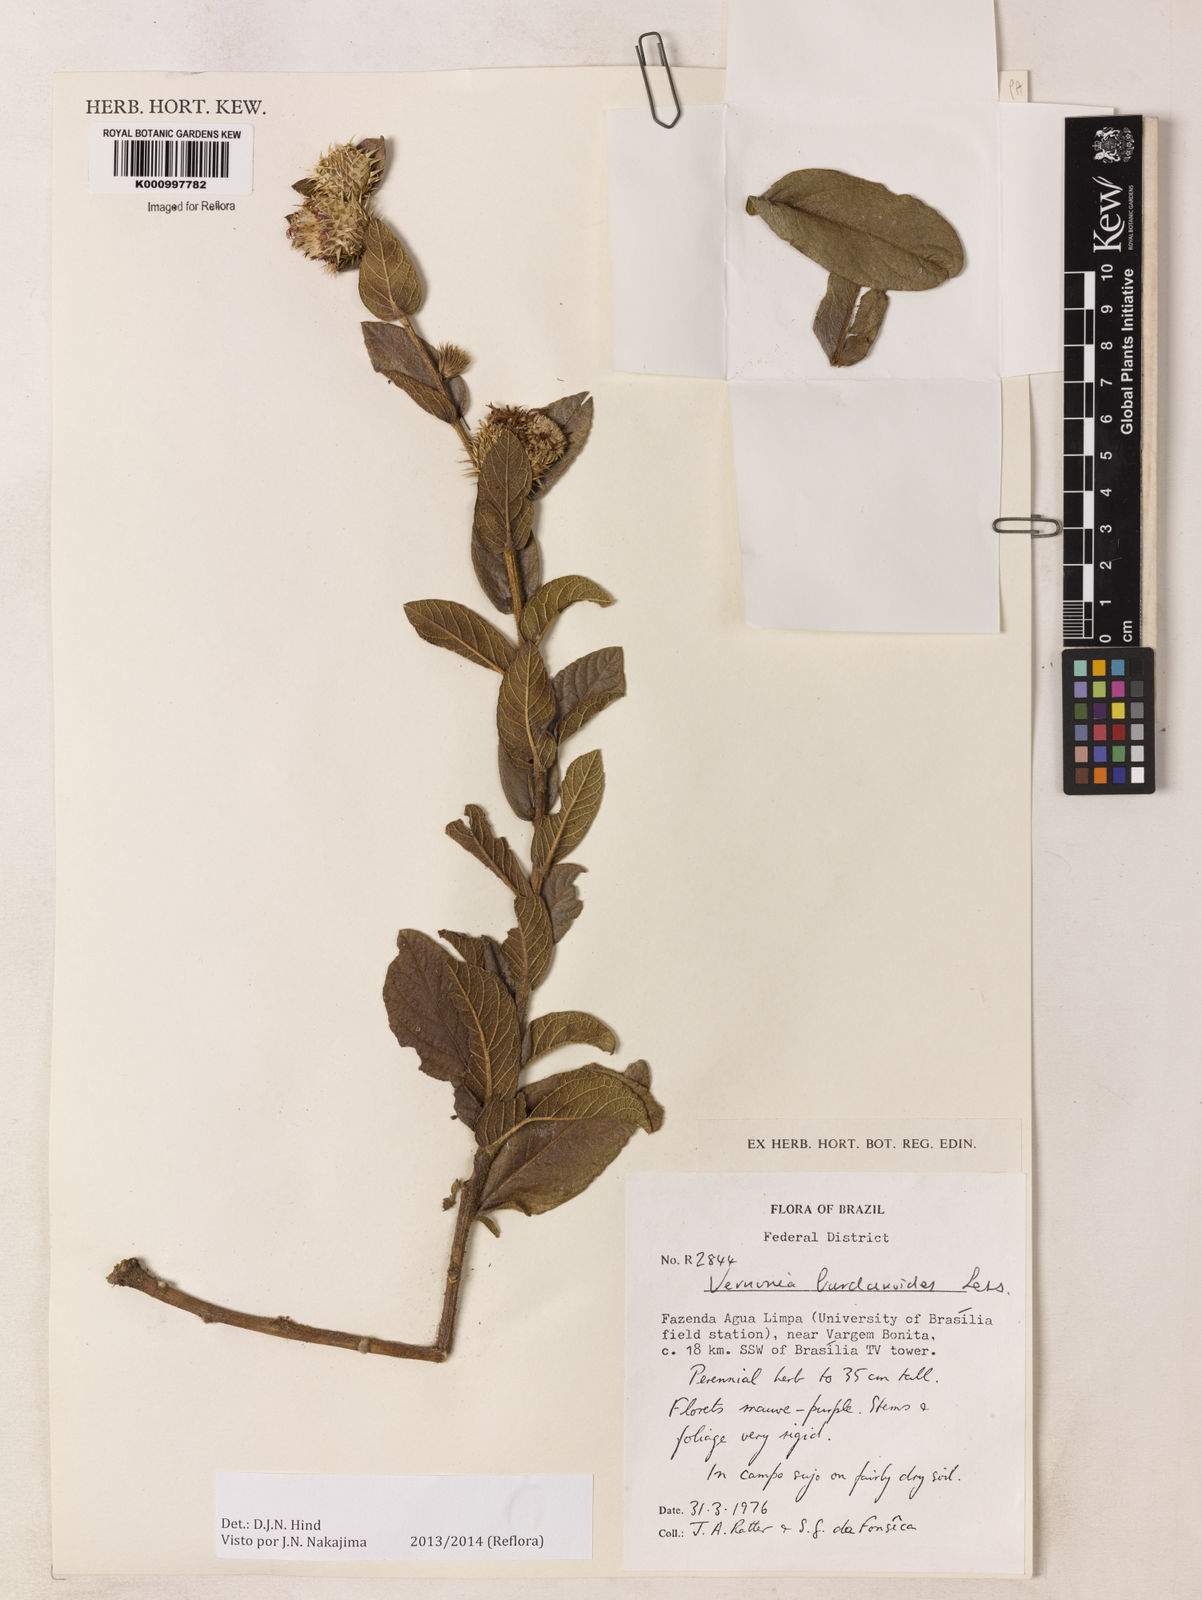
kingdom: Plantae
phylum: Tracheophyta
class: Magnoliopsida
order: Asterales
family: Asteraceae
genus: Lessingianthus
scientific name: Lessingianthus bardanioides
